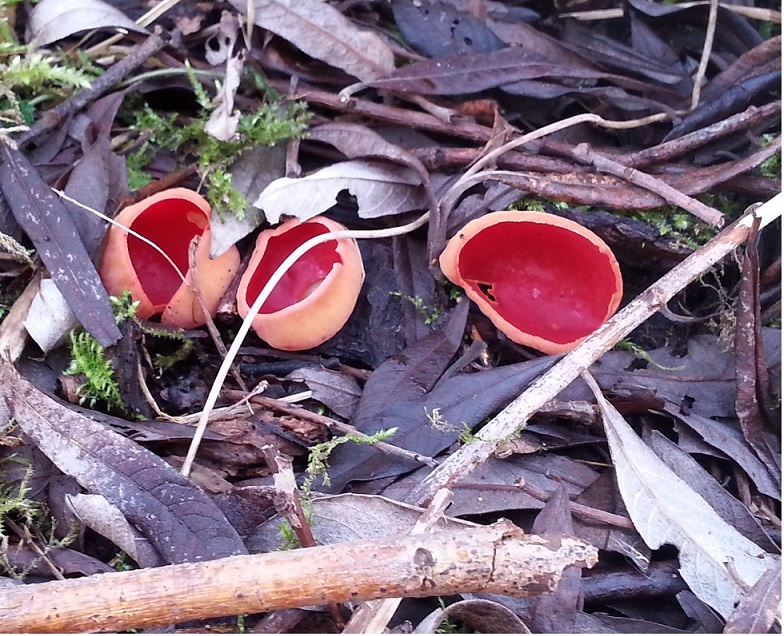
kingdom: Fungi
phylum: Ascomycota
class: Pezizomycetes
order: Pezizales
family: Sarcoscyphaceae
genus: Sarcoscypha
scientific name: Sarcoscypha austriaca
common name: krølhåret pragtbæger
